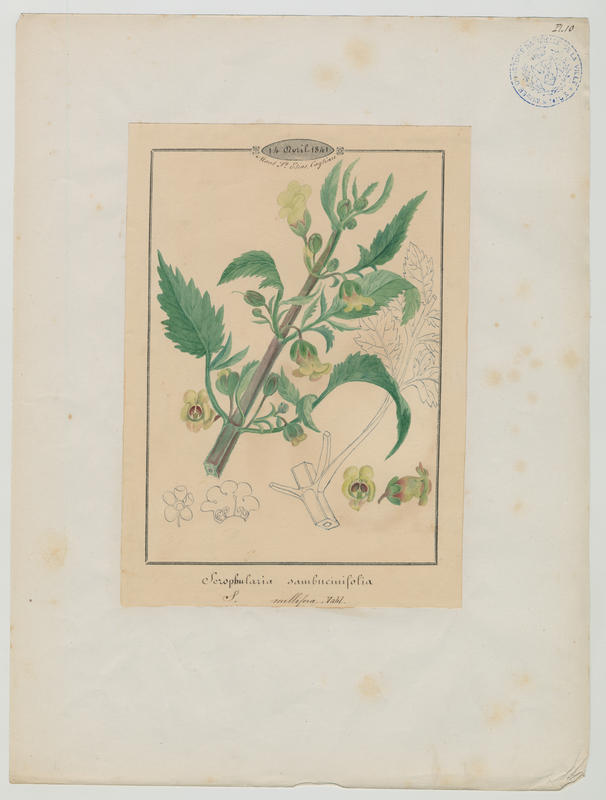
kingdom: Plantae
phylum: Tracheophyta
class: Magnoliopsida
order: Lamiales
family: Scrophulariaceae
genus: Scrophularia
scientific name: Scrophularia trifoliata
